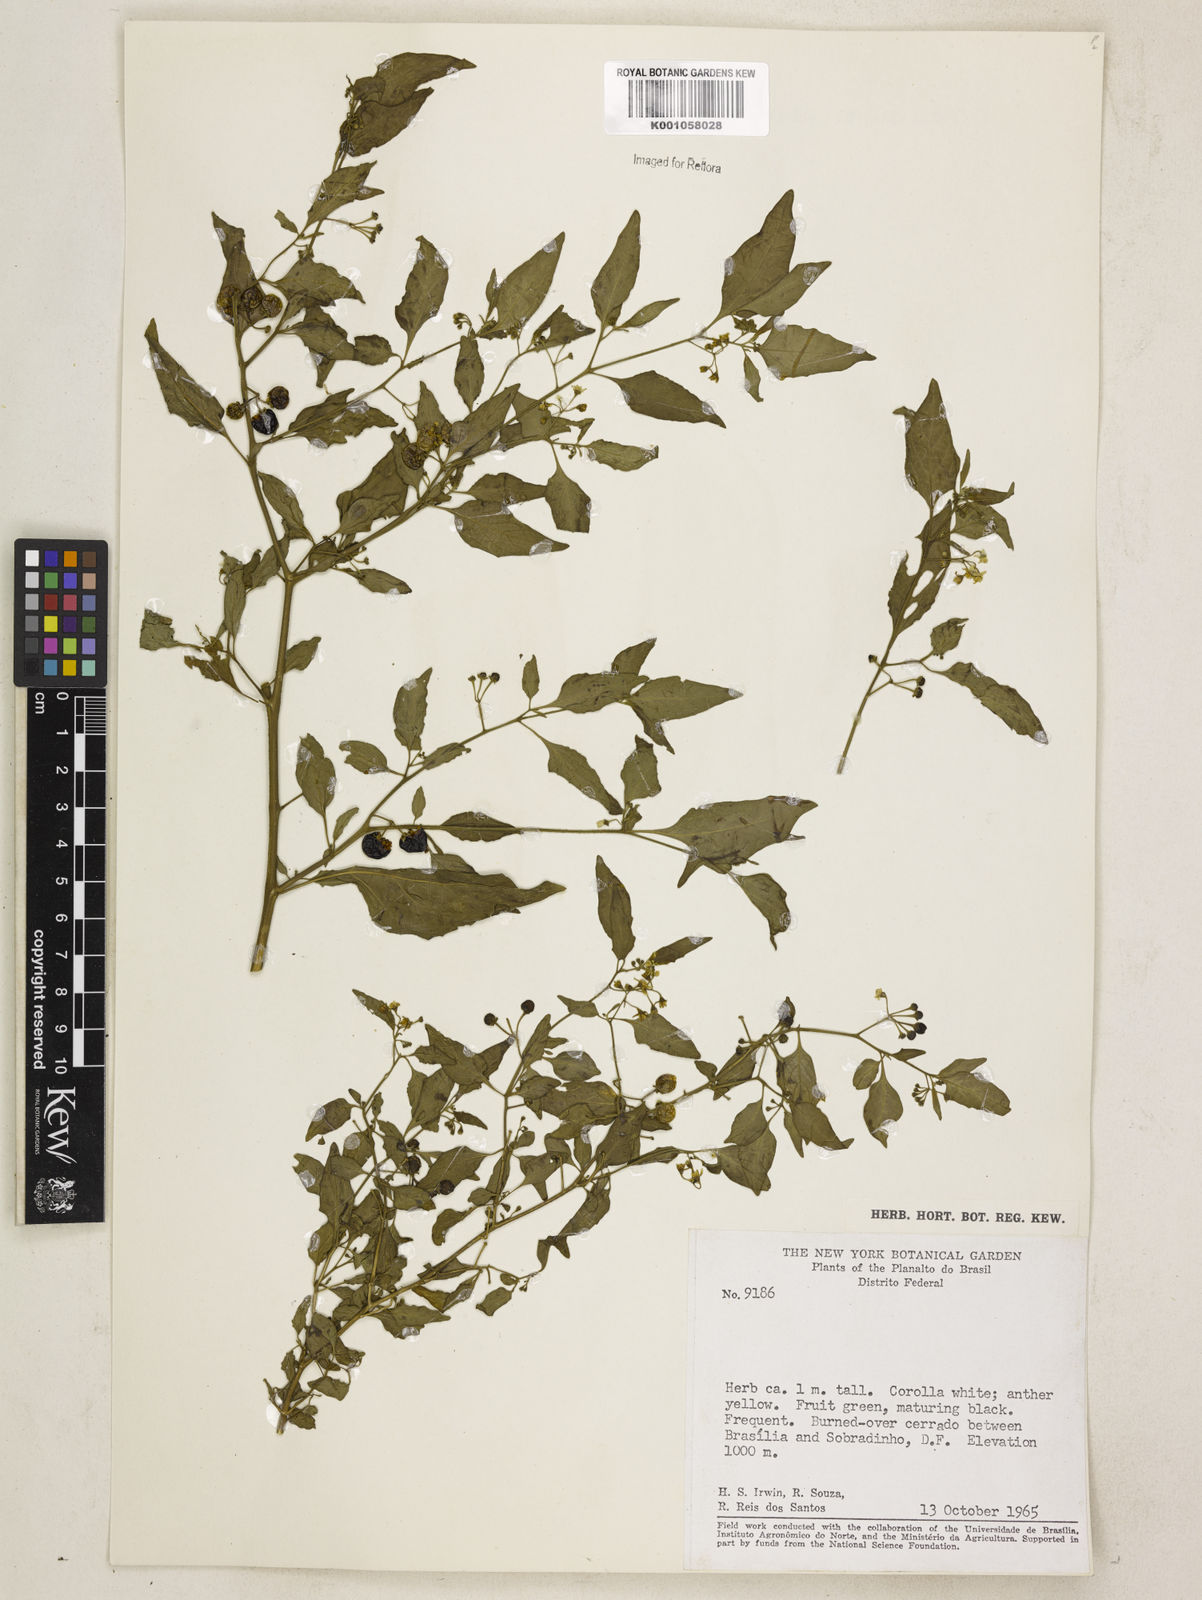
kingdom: Plantae
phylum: Tracheophyta
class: Magnoliopsida
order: Solanales
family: Solanaceae
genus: Solanum
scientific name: Solanum americanum
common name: American black nightshade
